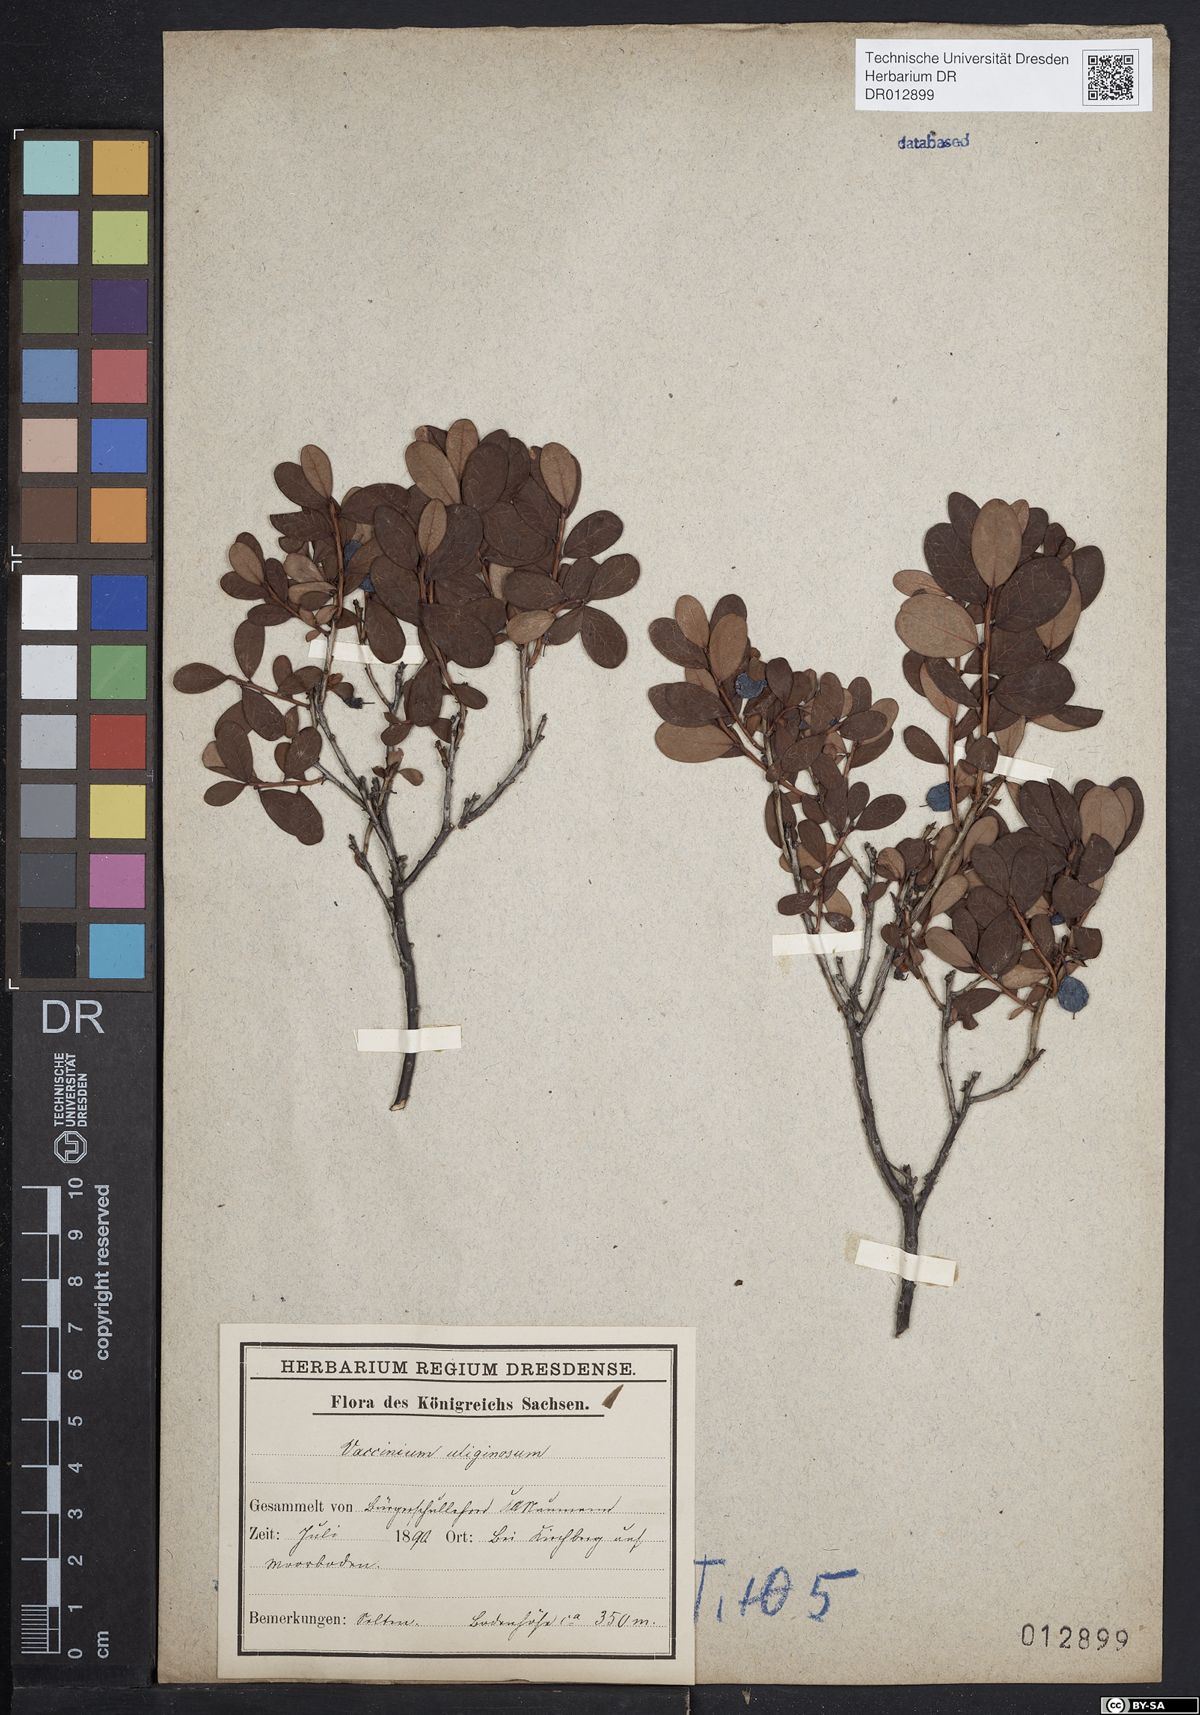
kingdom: Plantae
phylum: Tracheophyta
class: Magnoliopsida
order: Ericales
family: Ericaceae
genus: Vaccinium
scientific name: Vaccinium uliginosum
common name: Bog bilberry
